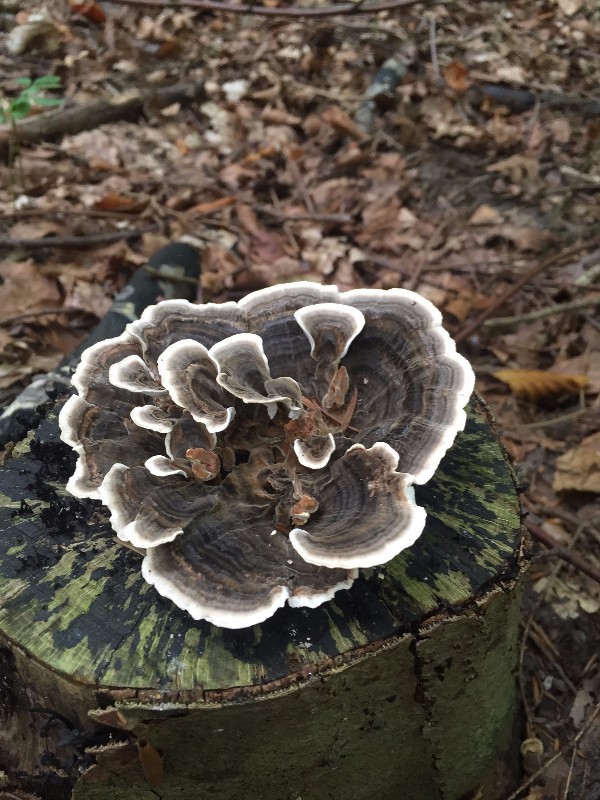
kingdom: Fungi
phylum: Basidiomycota
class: Agaricomycetes
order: Polyporales
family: Polyporaceae
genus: Trametes
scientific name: Trametes versicolor
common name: broget læderporesvamp
